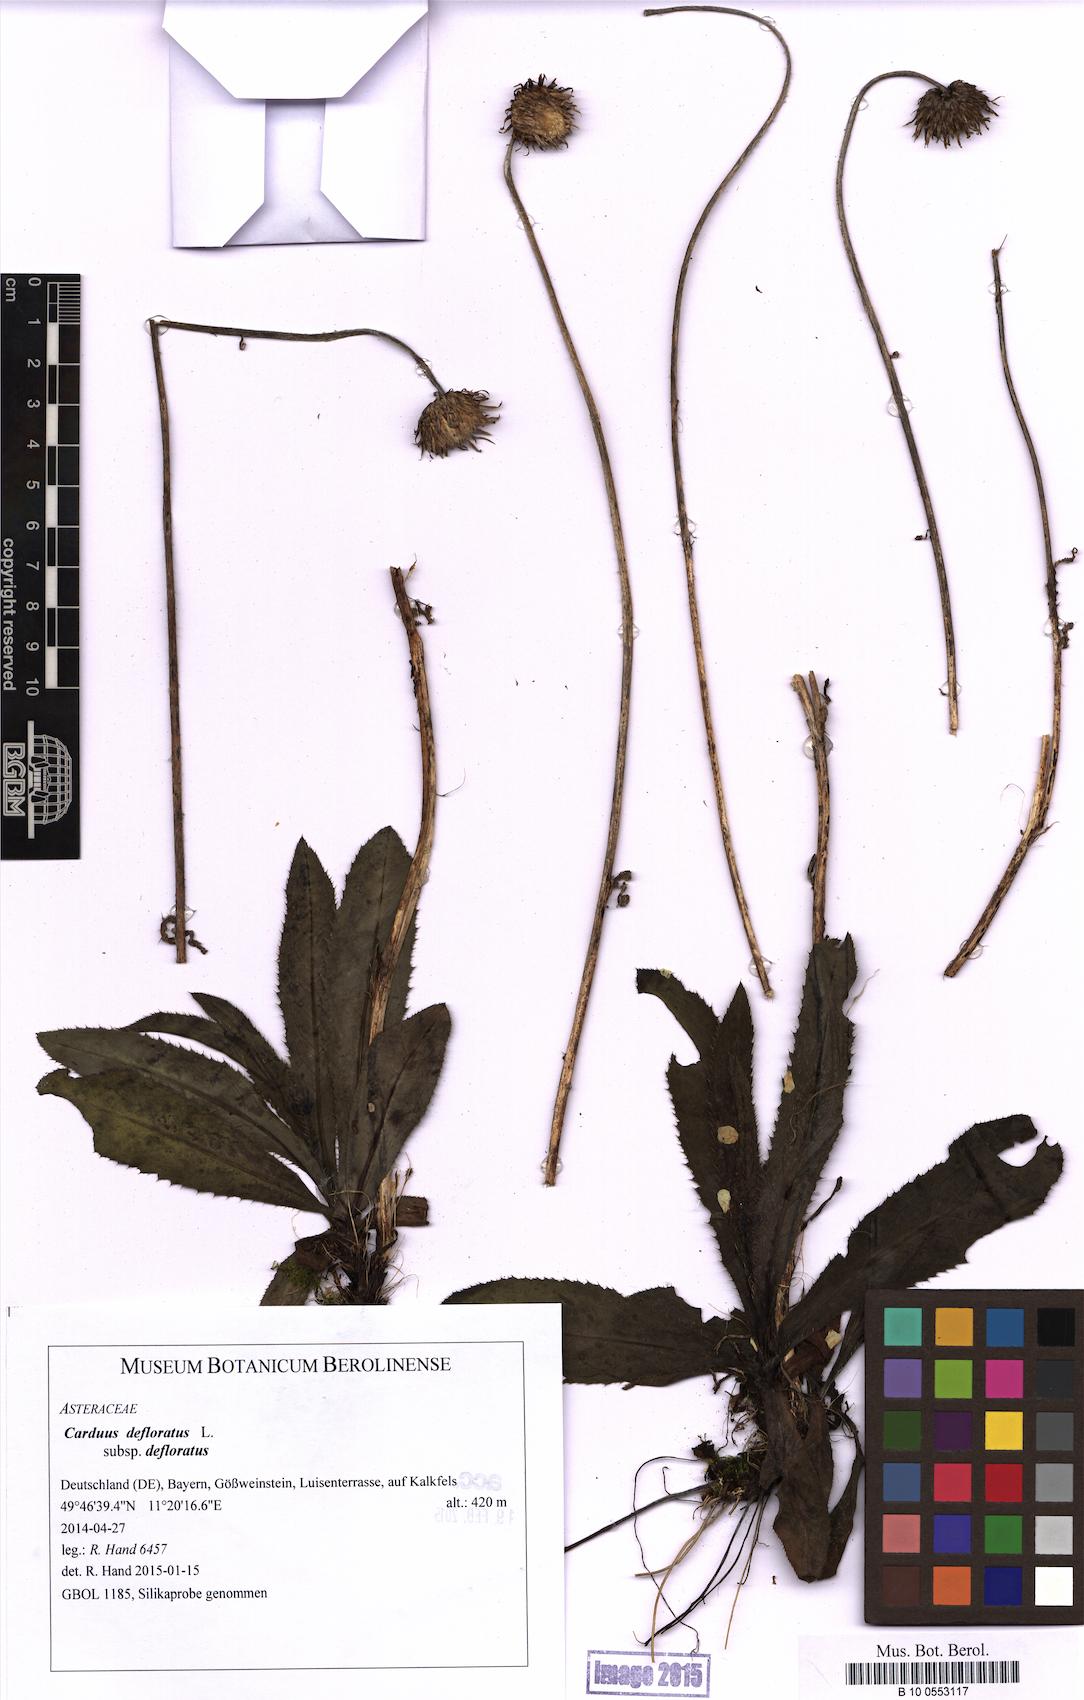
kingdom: Plantae
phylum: Tracheophyta
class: Magnoliopsida
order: Asterales
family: Asteraceae
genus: Carduus
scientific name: Carduus defloratus
